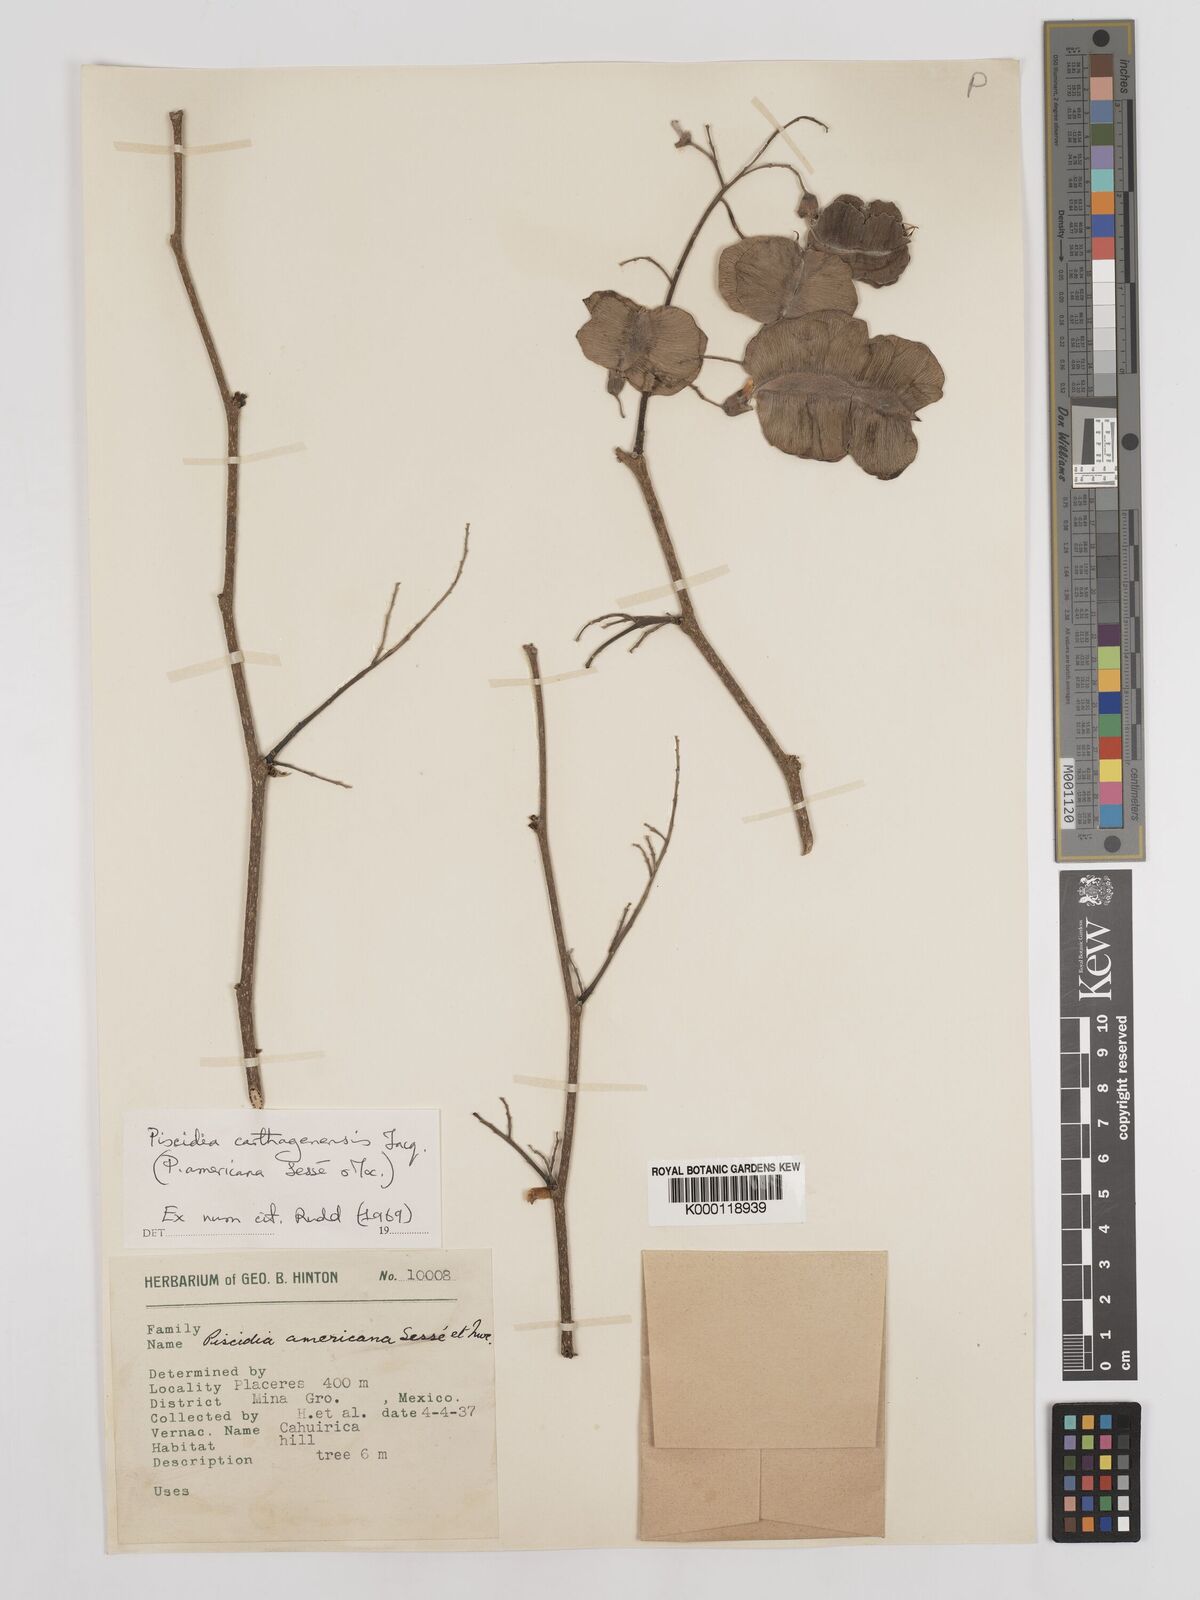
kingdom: Plantae
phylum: Tracheophyta
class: Magnoliopsida
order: Fabales
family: Fabaceae
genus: Piscidia
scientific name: Piscidia carthagenensis
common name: Stinkwood
